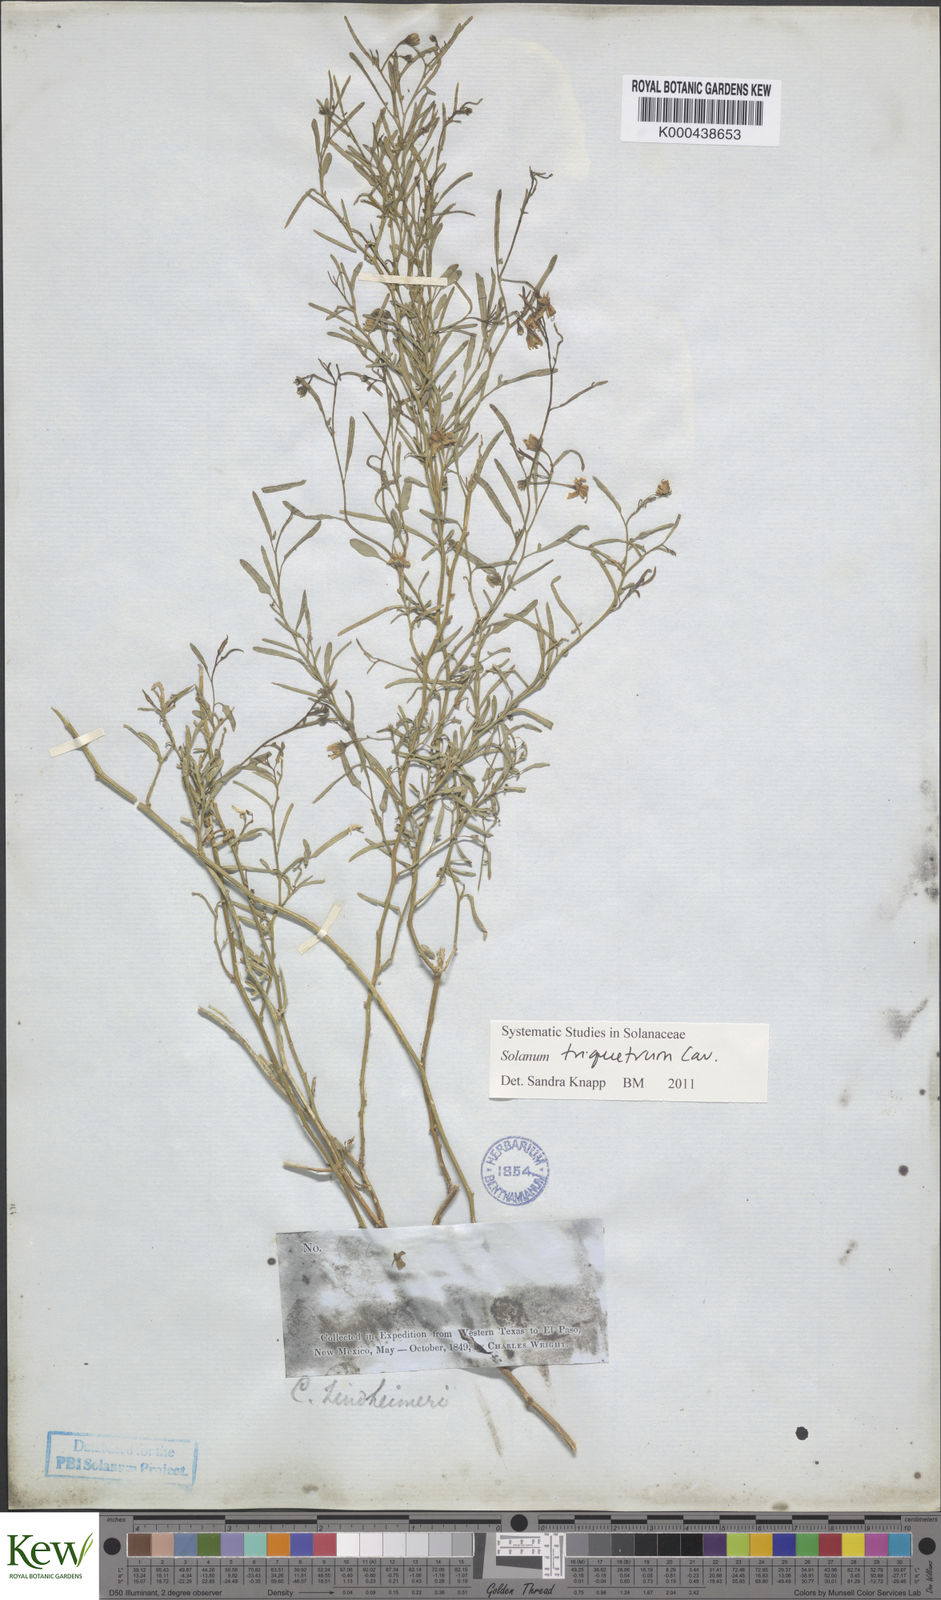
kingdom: Plantae
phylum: Tracheophyta
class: Magnoliopsida
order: Solanales
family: Solanaceae
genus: Solanum
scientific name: Solanum triquetrum
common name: Texas nightshade
